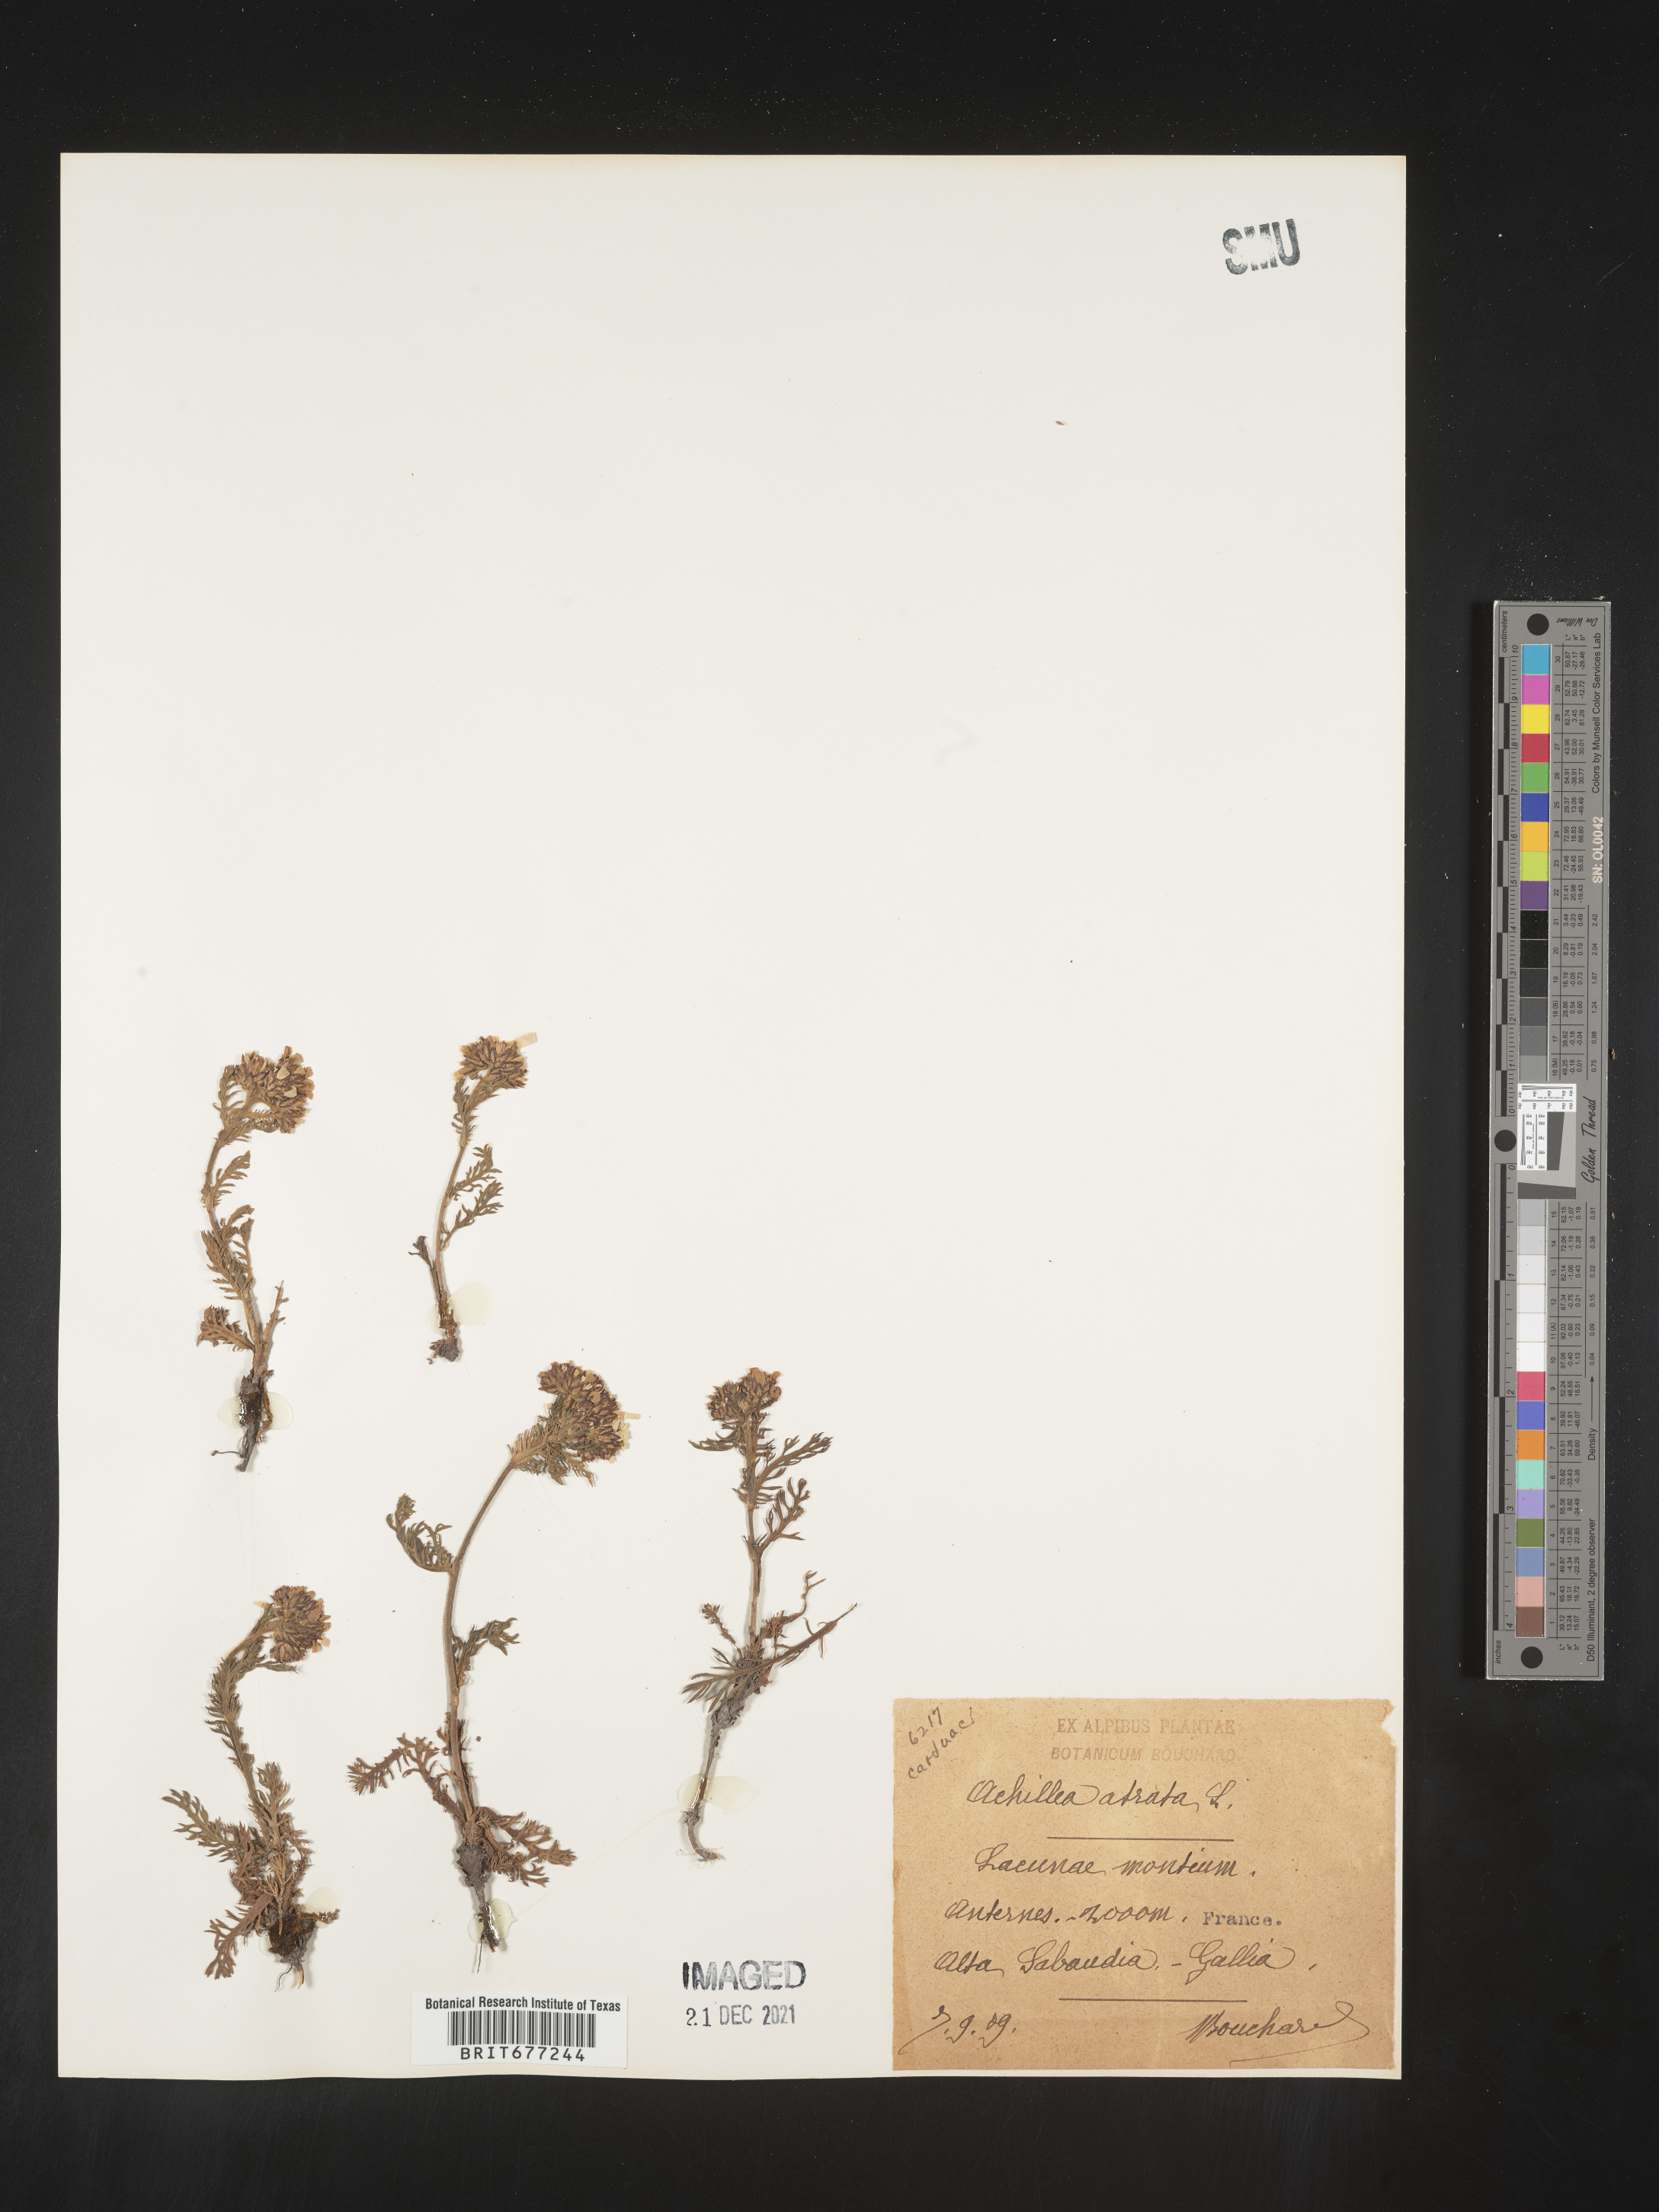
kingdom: Plantae
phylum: Tracheophyta
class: Magnoliopsida
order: Asterales
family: Asteraceae
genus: Achillea
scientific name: Achillea
